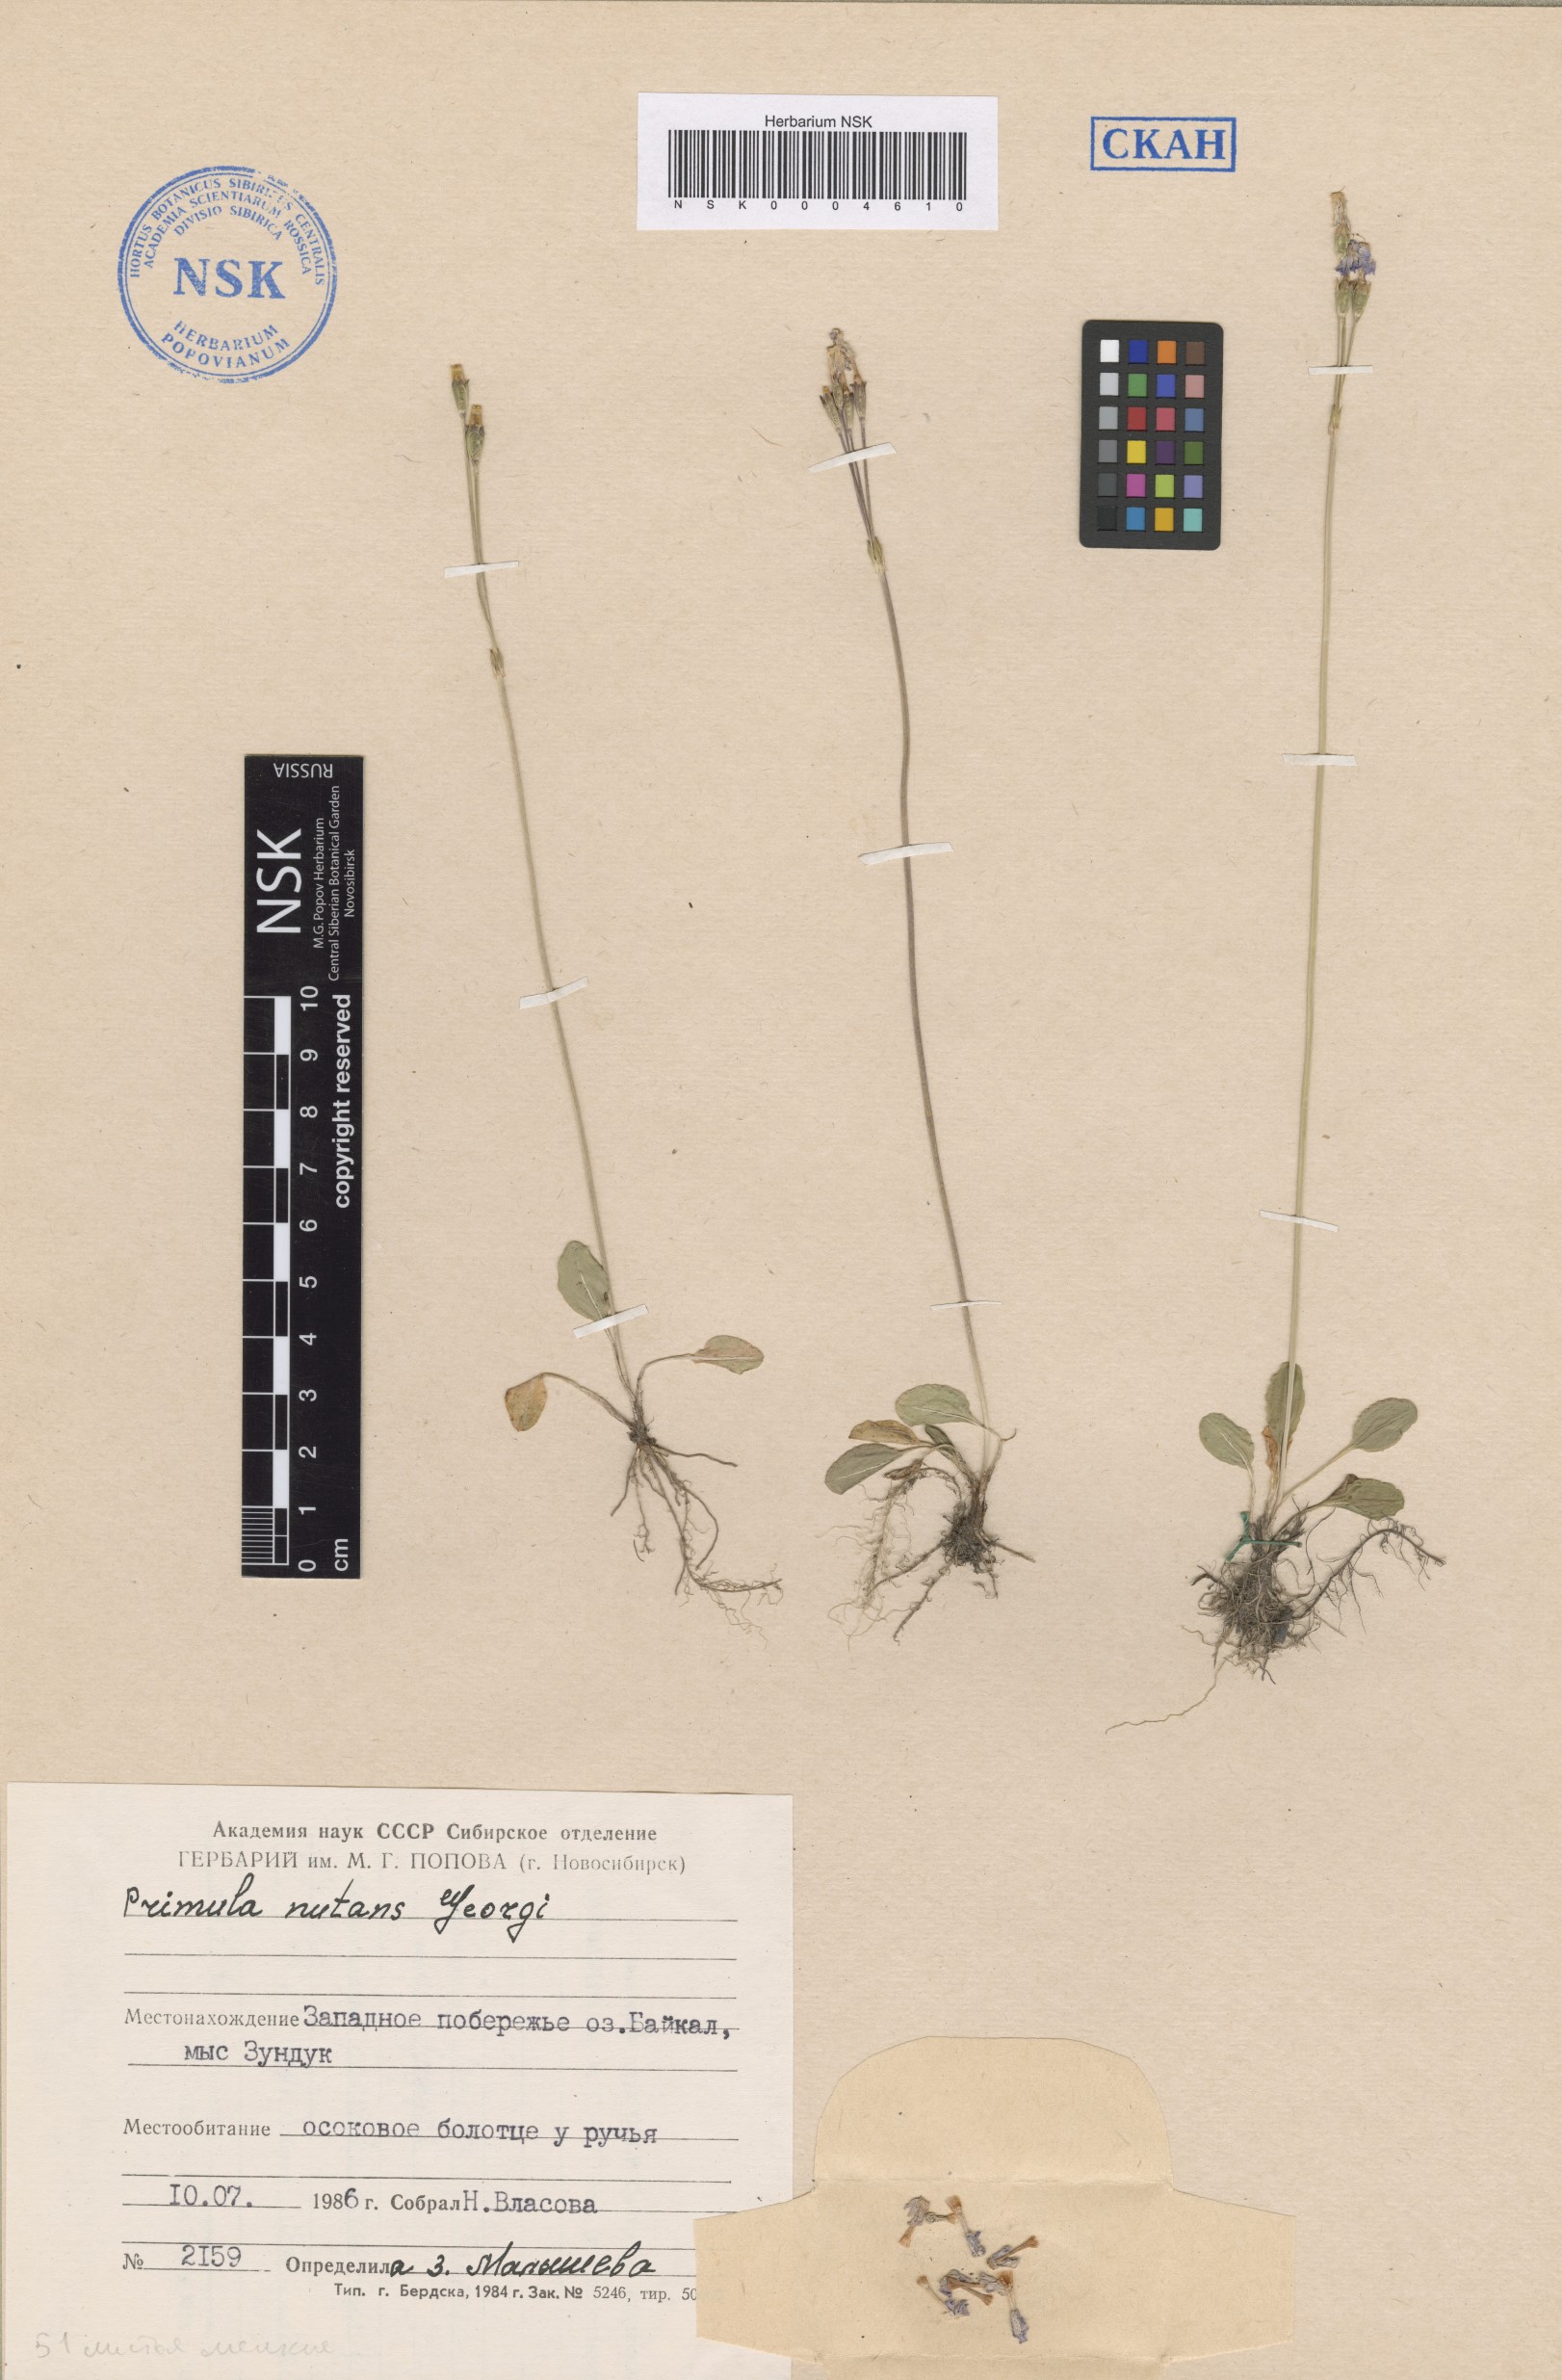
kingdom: Plantae
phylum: Tracheophyta
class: Magnoliopsida
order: Ericales
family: Primulaceae
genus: Primula
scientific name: Primula nutans
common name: Siberian primrose
